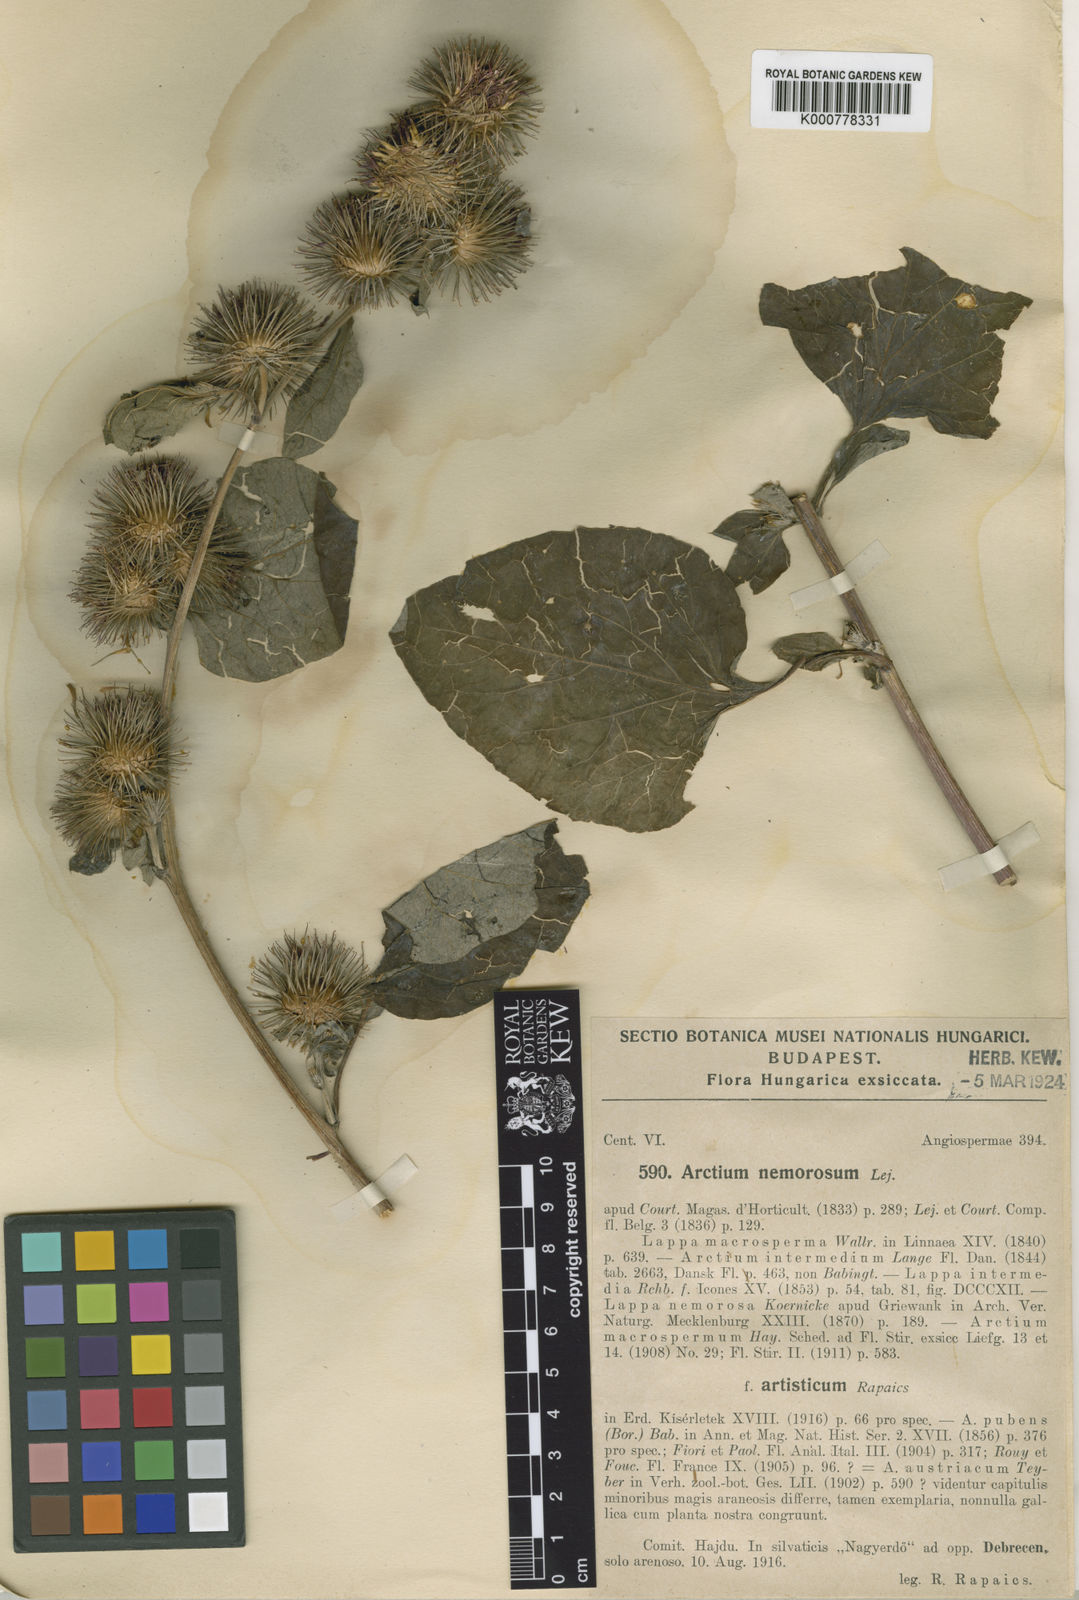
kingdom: Plantae
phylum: Tracheophyta
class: Magnoliopsida
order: Asterales
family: Asteraceae
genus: Arctium
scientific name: Arctium nemorosum
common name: Wood burdock
